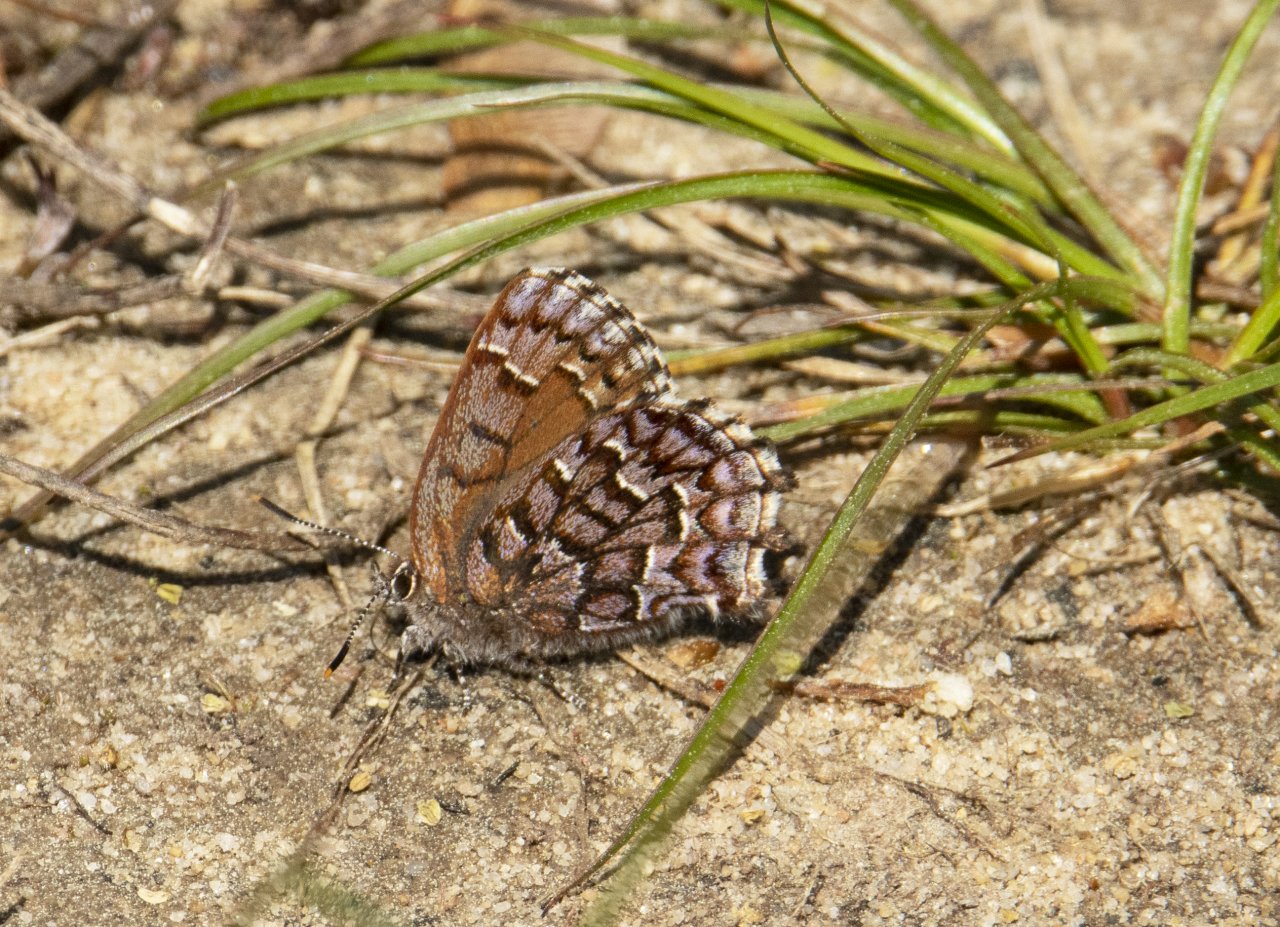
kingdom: Animalia
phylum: Arthropoda
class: Insecta
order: Lepidoptera
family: Lycaenidae
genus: Incisalia
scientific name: Incisalia niphon
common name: Eastern Pine Elfin
